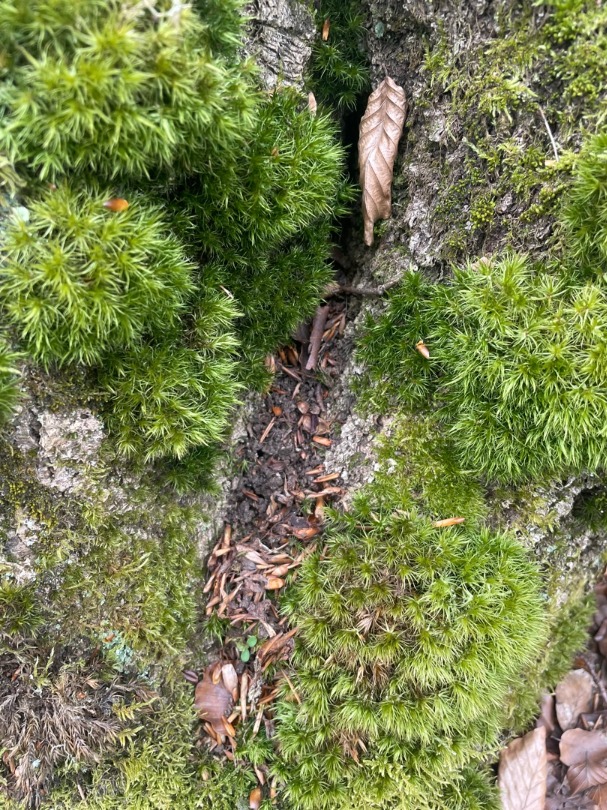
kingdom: Plantae
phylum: Bryophyta
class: Bryopsida
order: Dicranales
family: Dicranaceae
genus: Dicranum
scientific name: Dicranum scoparium
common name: Almindelig kløvtand
